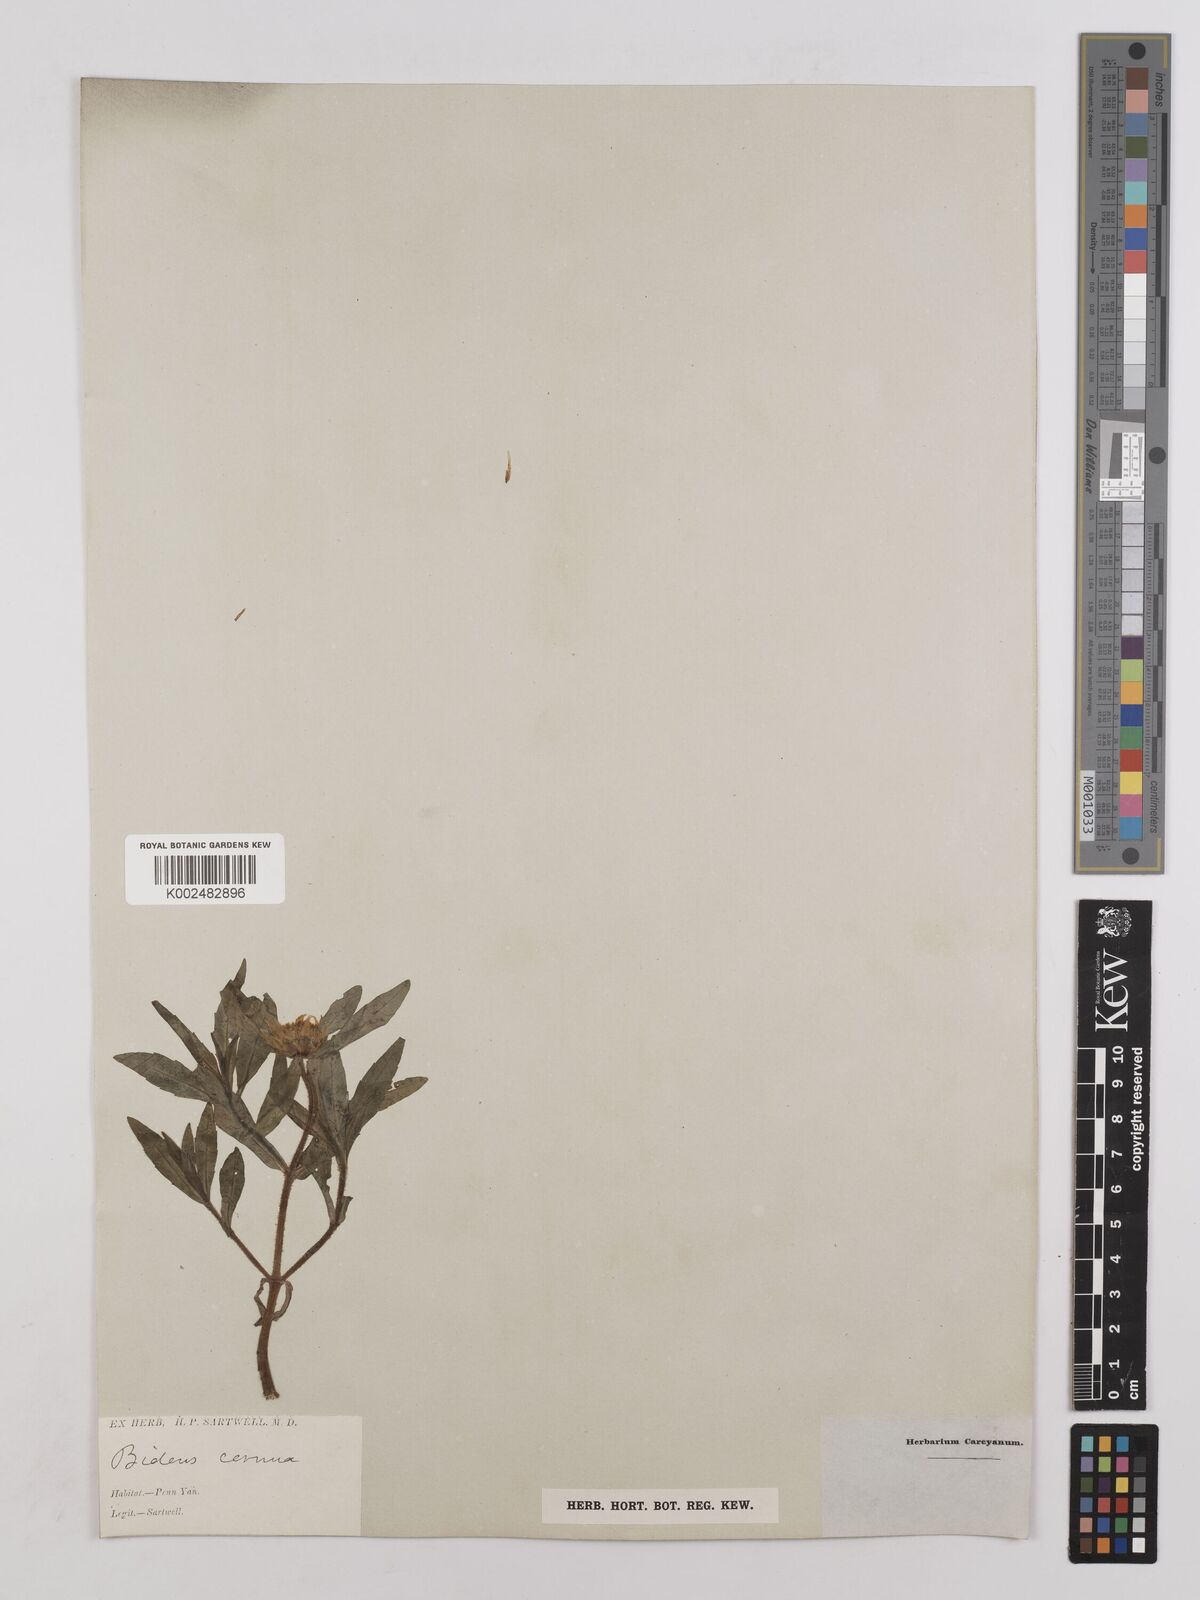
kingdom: Plantae
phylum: Tracheophyta
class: Magnoliopsida
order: Asterales
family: Asteraceae
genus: Bidens
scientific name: Bidens cernua
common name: Nodding bur-marigold
